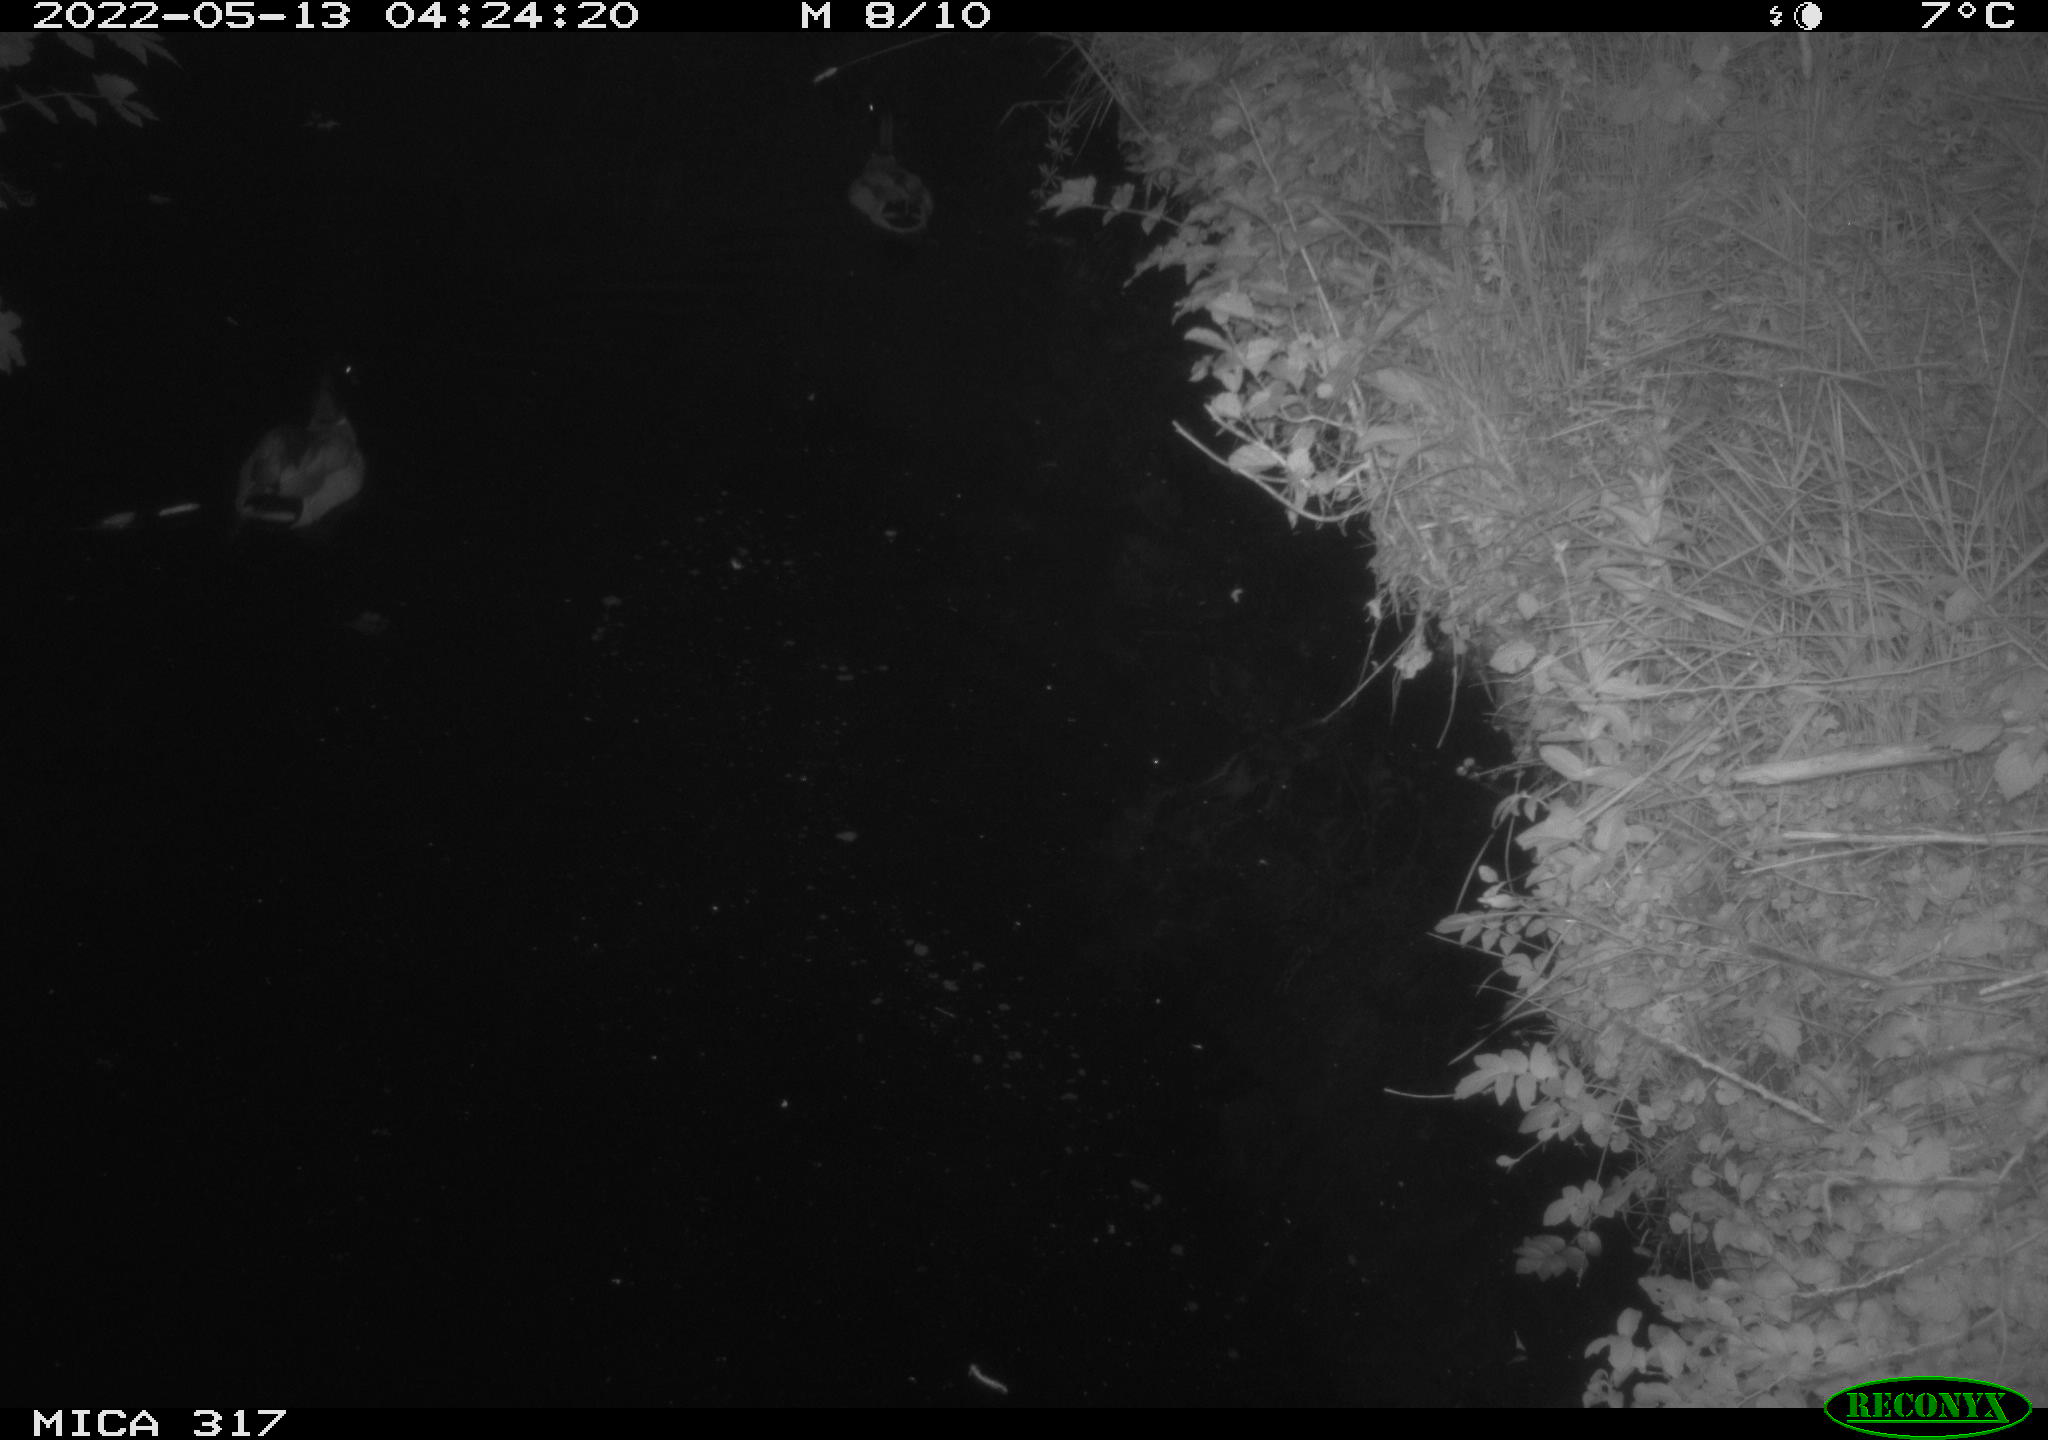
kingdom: Animalia
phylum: Chordata
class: Aves
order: Anseriformes
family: Anatidae
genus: Anas
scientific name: Anas
